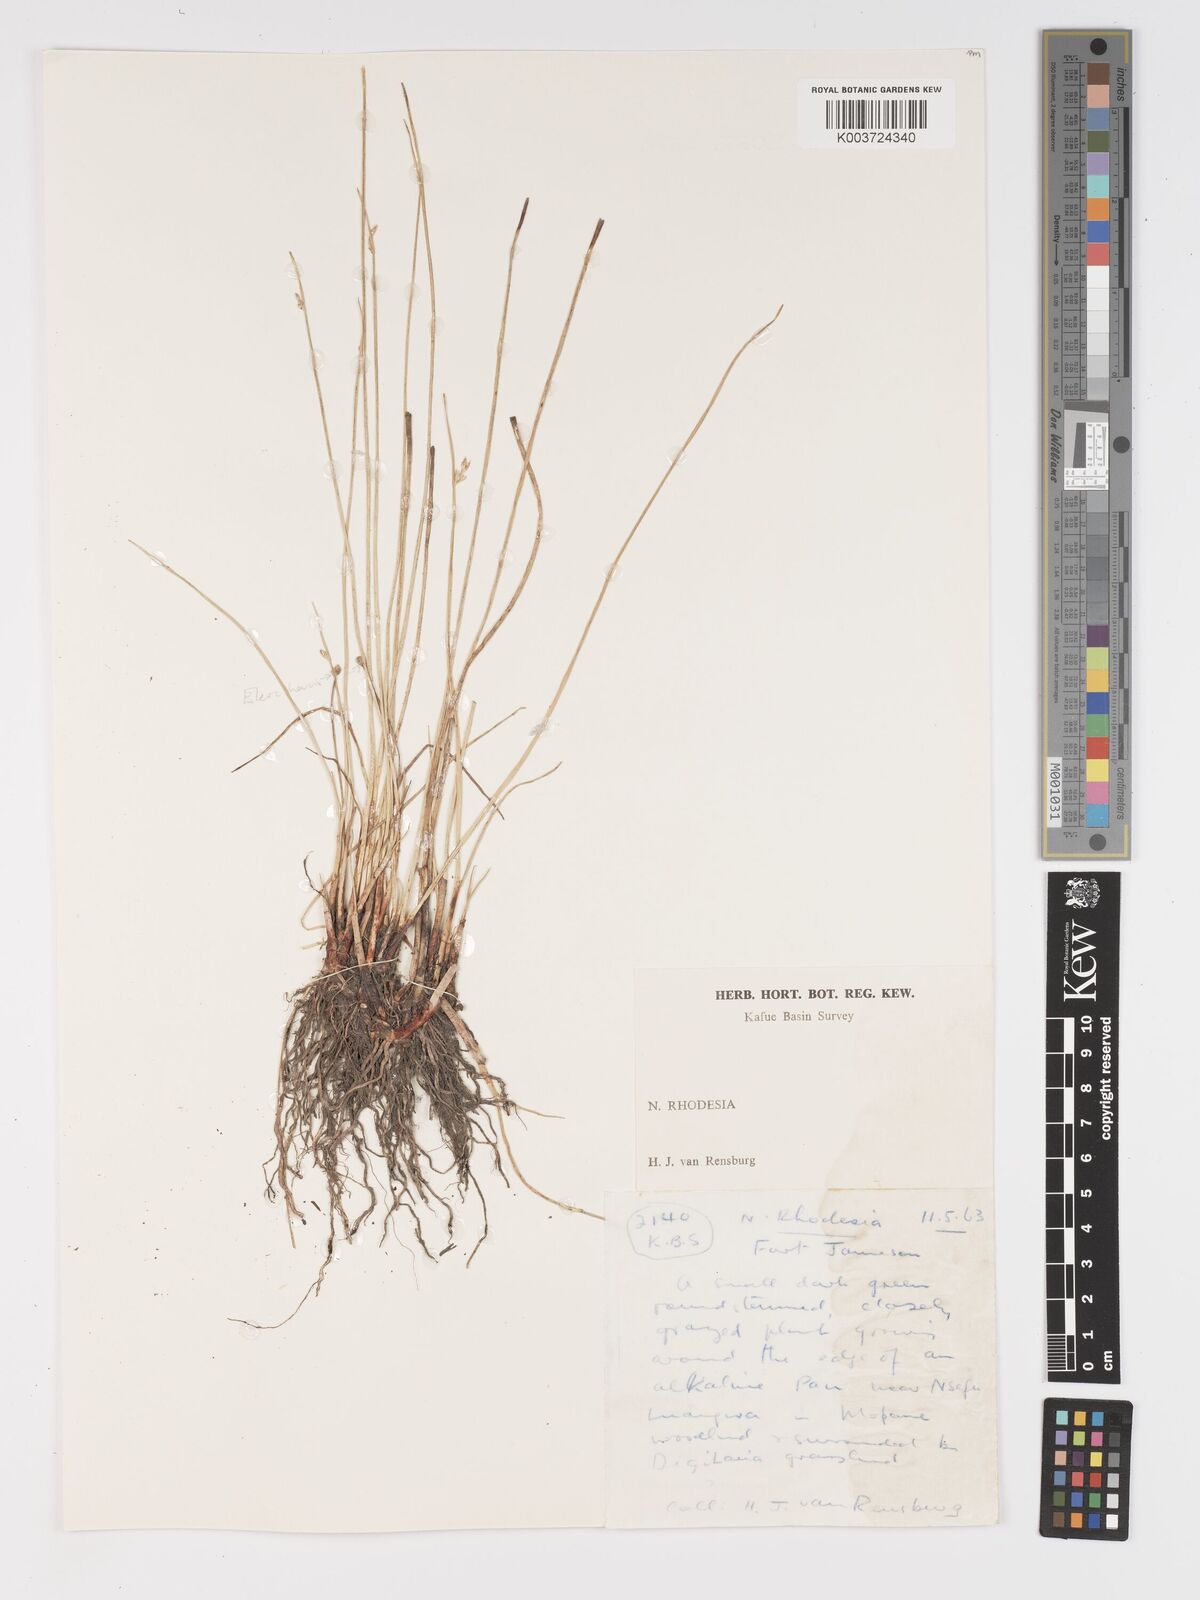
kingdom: Plantae
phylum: Tracheophyta
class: Liliopsida
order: Poales
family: Cyperaceae
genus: Cyperus
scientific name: Cyperus laevigatus
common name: Smooth flat sedge
